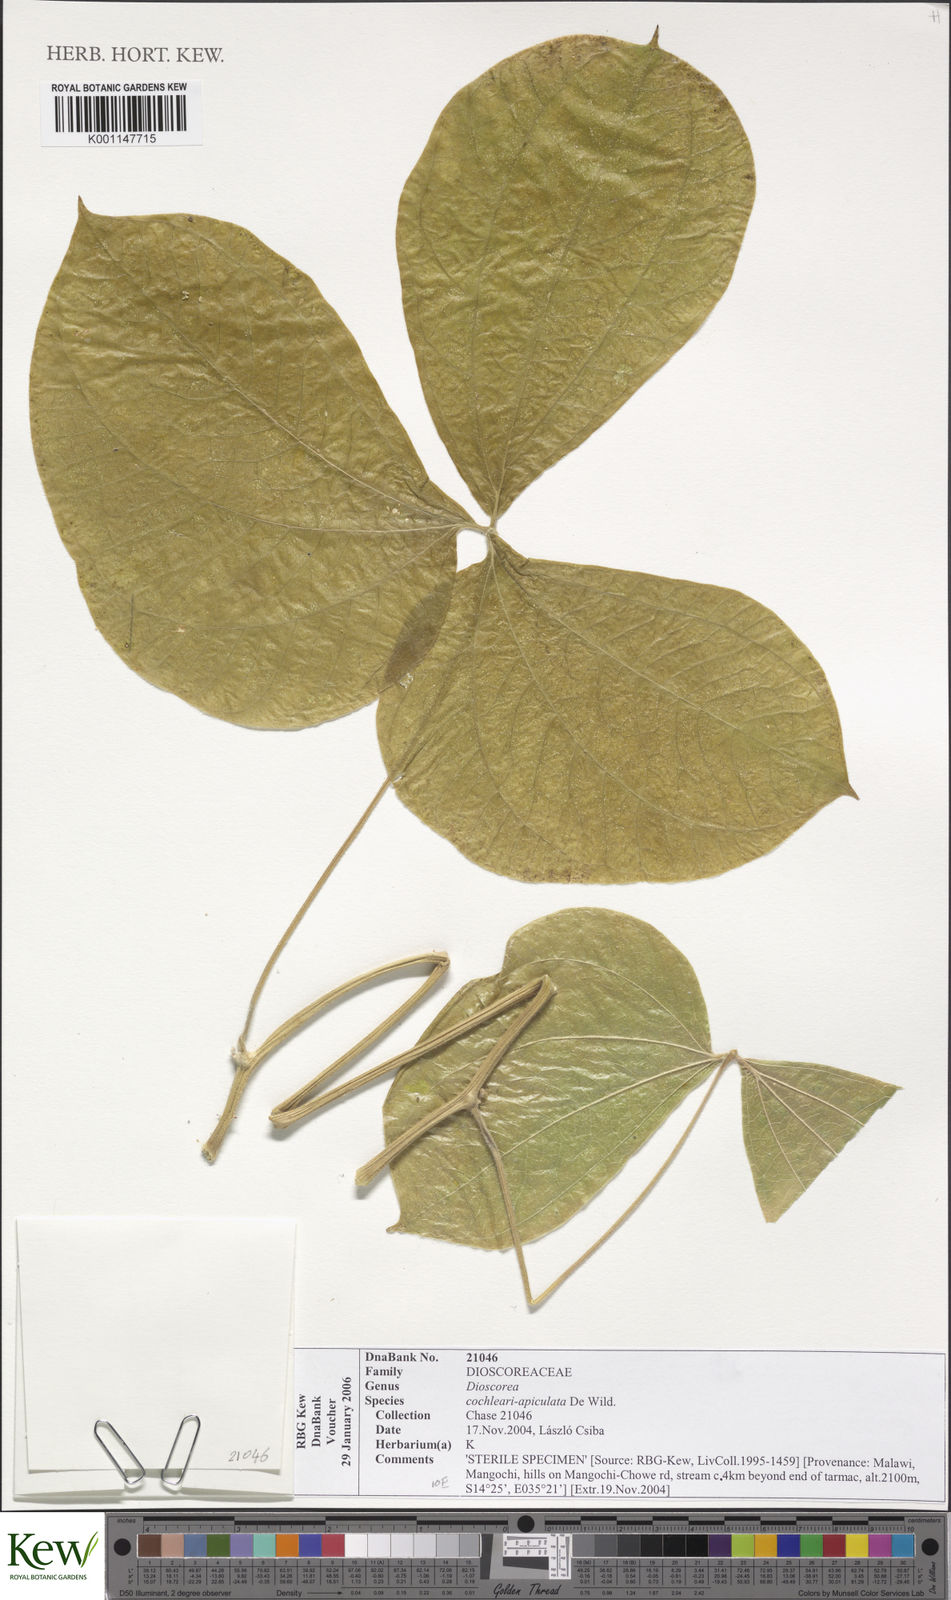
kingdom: Plantae
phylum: Tracheophyta
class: Liliopsida
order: Dioscoreales
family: Dioscoreaceae
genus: Dioscorea
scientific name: Dioscorea cochleariapiculata
